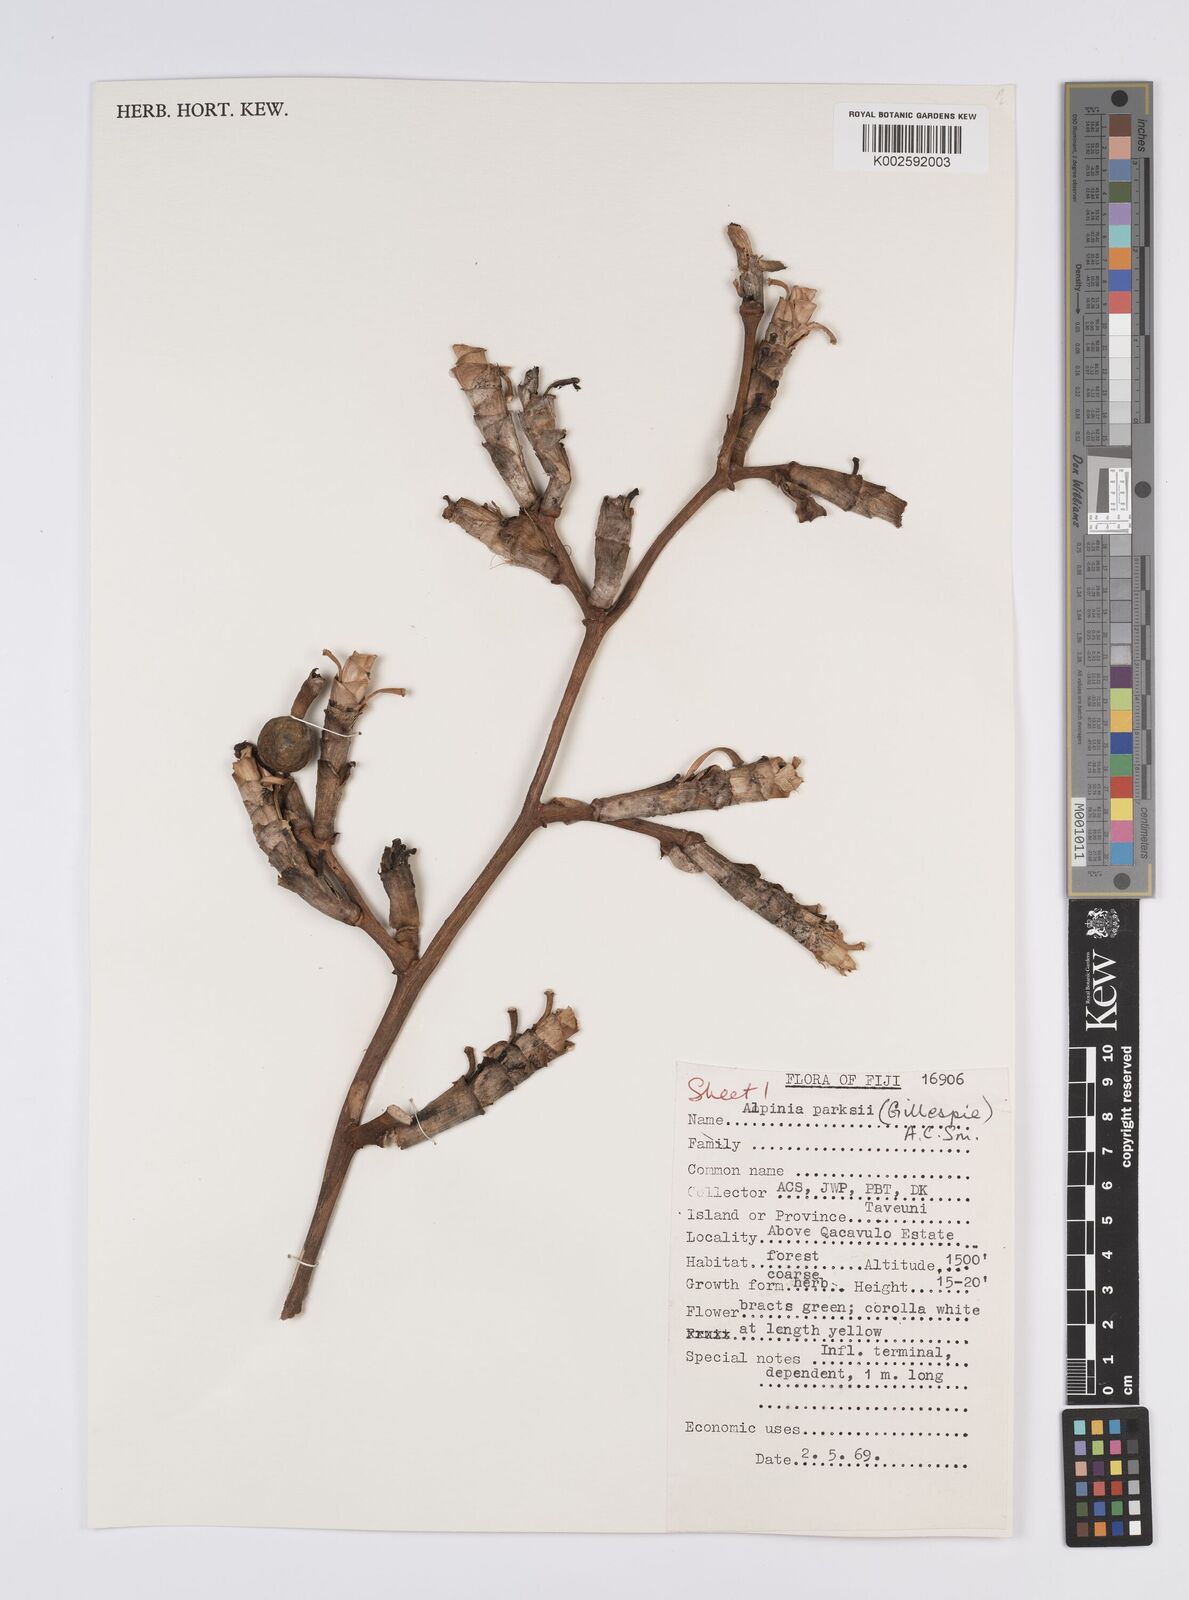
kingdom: Plantae
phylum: Tracheophyta
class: Liliopsida
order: Zingiberales
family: Zingiberaceae
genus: Alpinia
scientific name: Alpinia parksii
